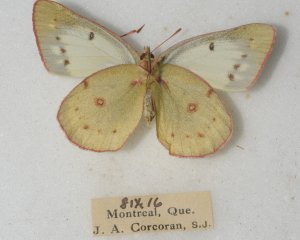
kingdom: Animalia
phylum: Arthropoda
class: Insecta
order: Lepidoptera
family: Pieridae
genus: Colias
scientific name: Colias philodice
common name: Clouded Sulphur
